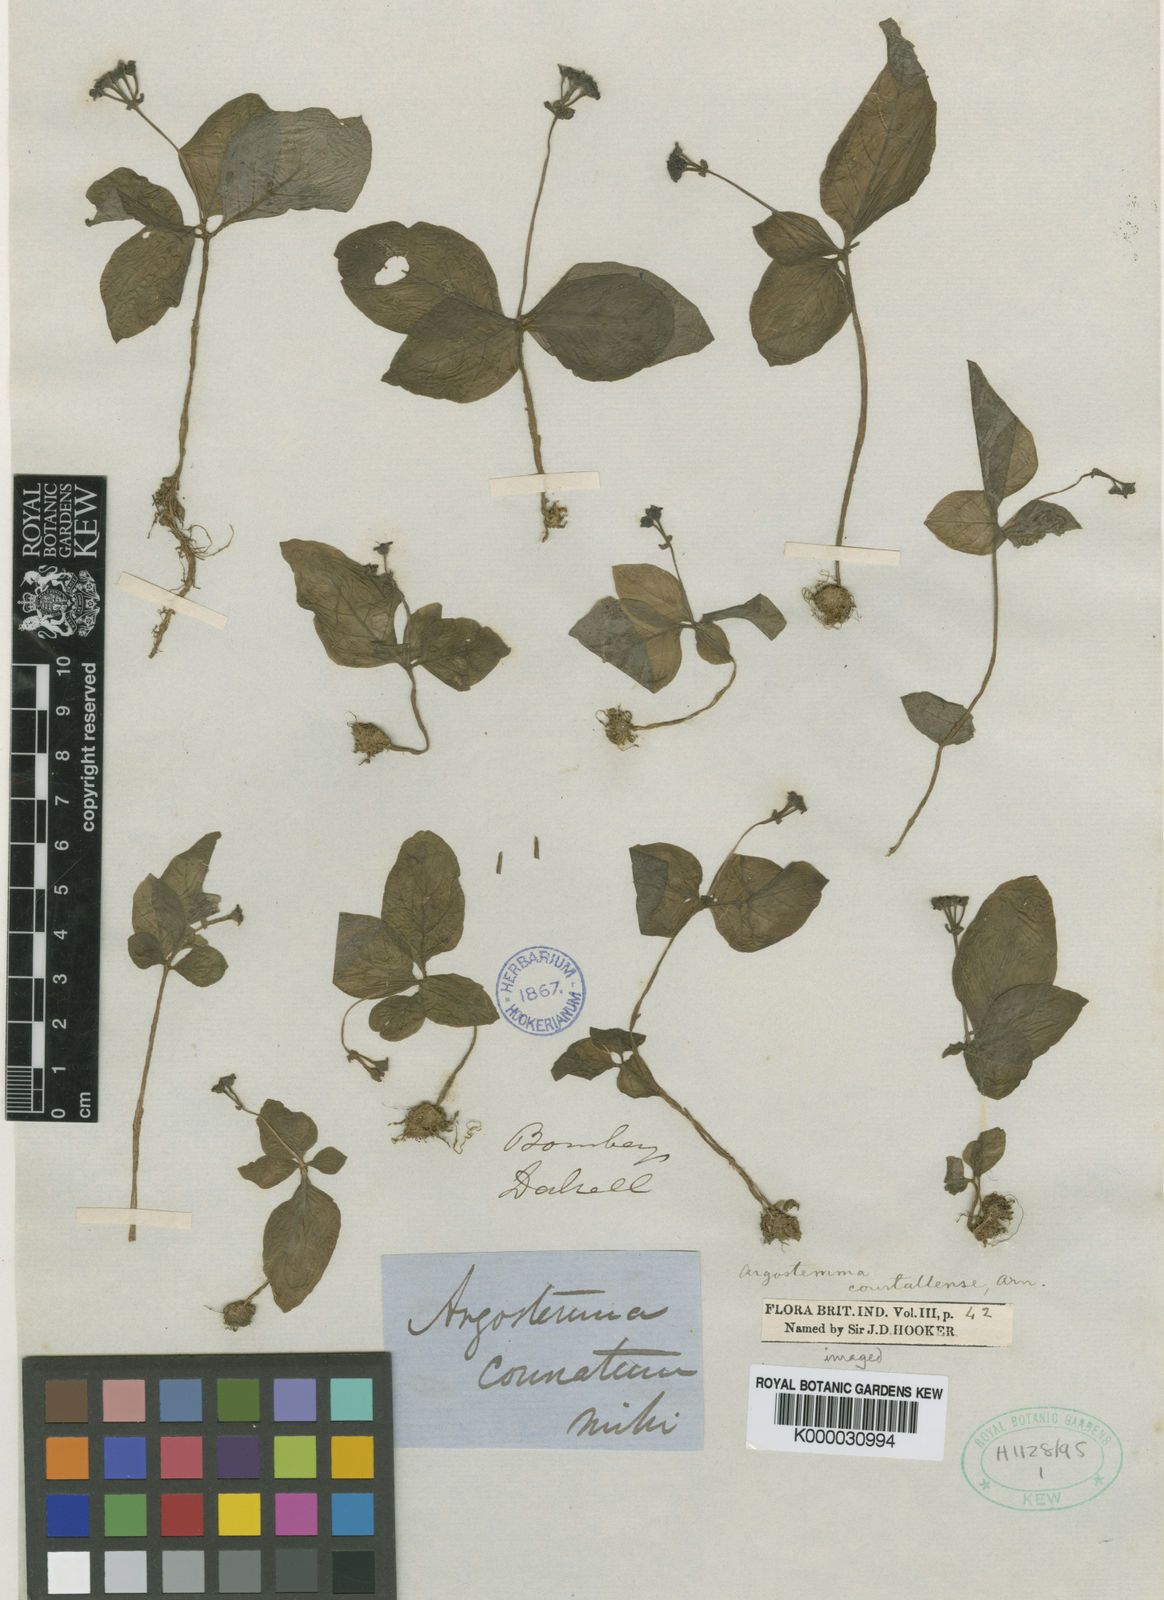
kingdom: Plantae
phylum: Tracheophyta
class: Magnoliopsida
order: Gentianales
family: Rubiaceae
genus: Argostemma
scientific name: Argostemma courtallense
